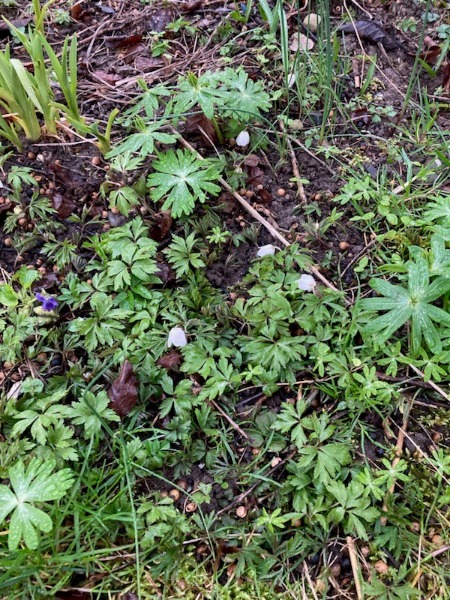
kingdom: Plantae
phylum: Tracheophyta
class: Magnoliopsida
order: Ranunculales
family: Ranunculaceae
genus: Anemone
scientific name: Anemone nemorosa
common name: Hvid anemone
